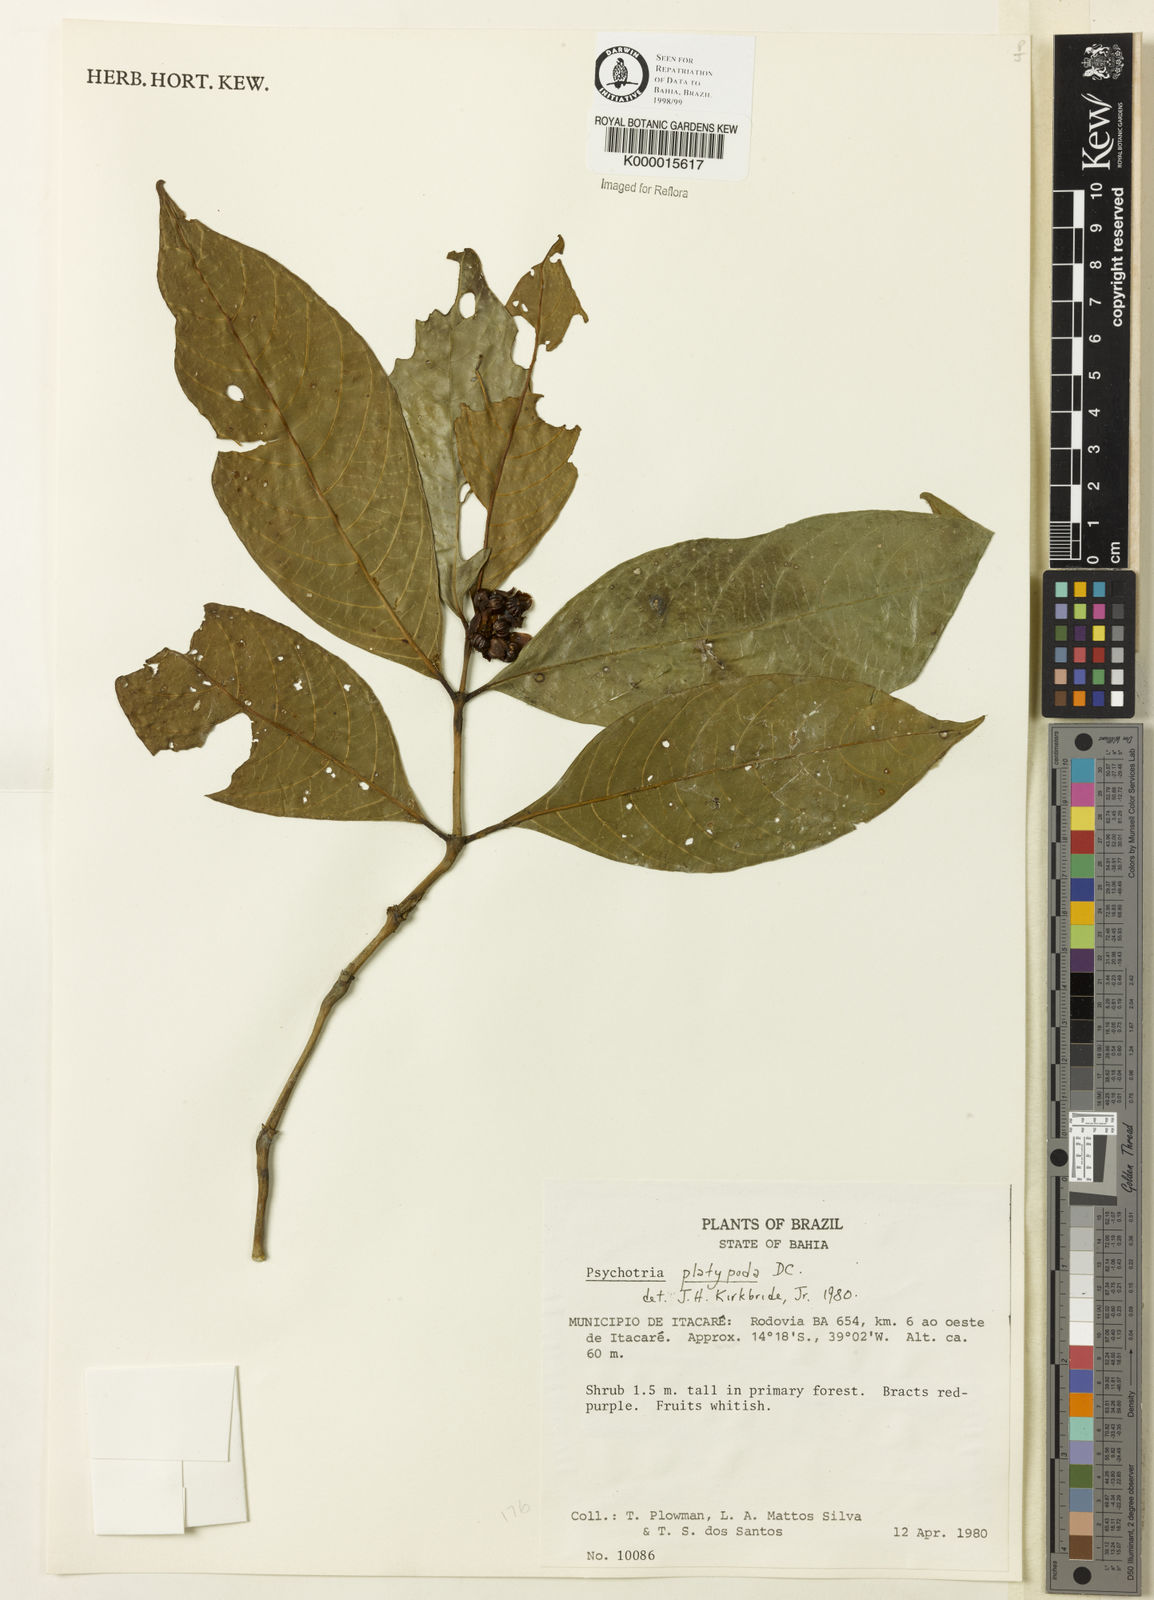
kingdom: Plantae
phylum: Tracheophyta
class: Magnoliopsida
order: Gentianales
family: Rubiaceae
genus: Palicourea
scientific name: Palicourea dichotoma
